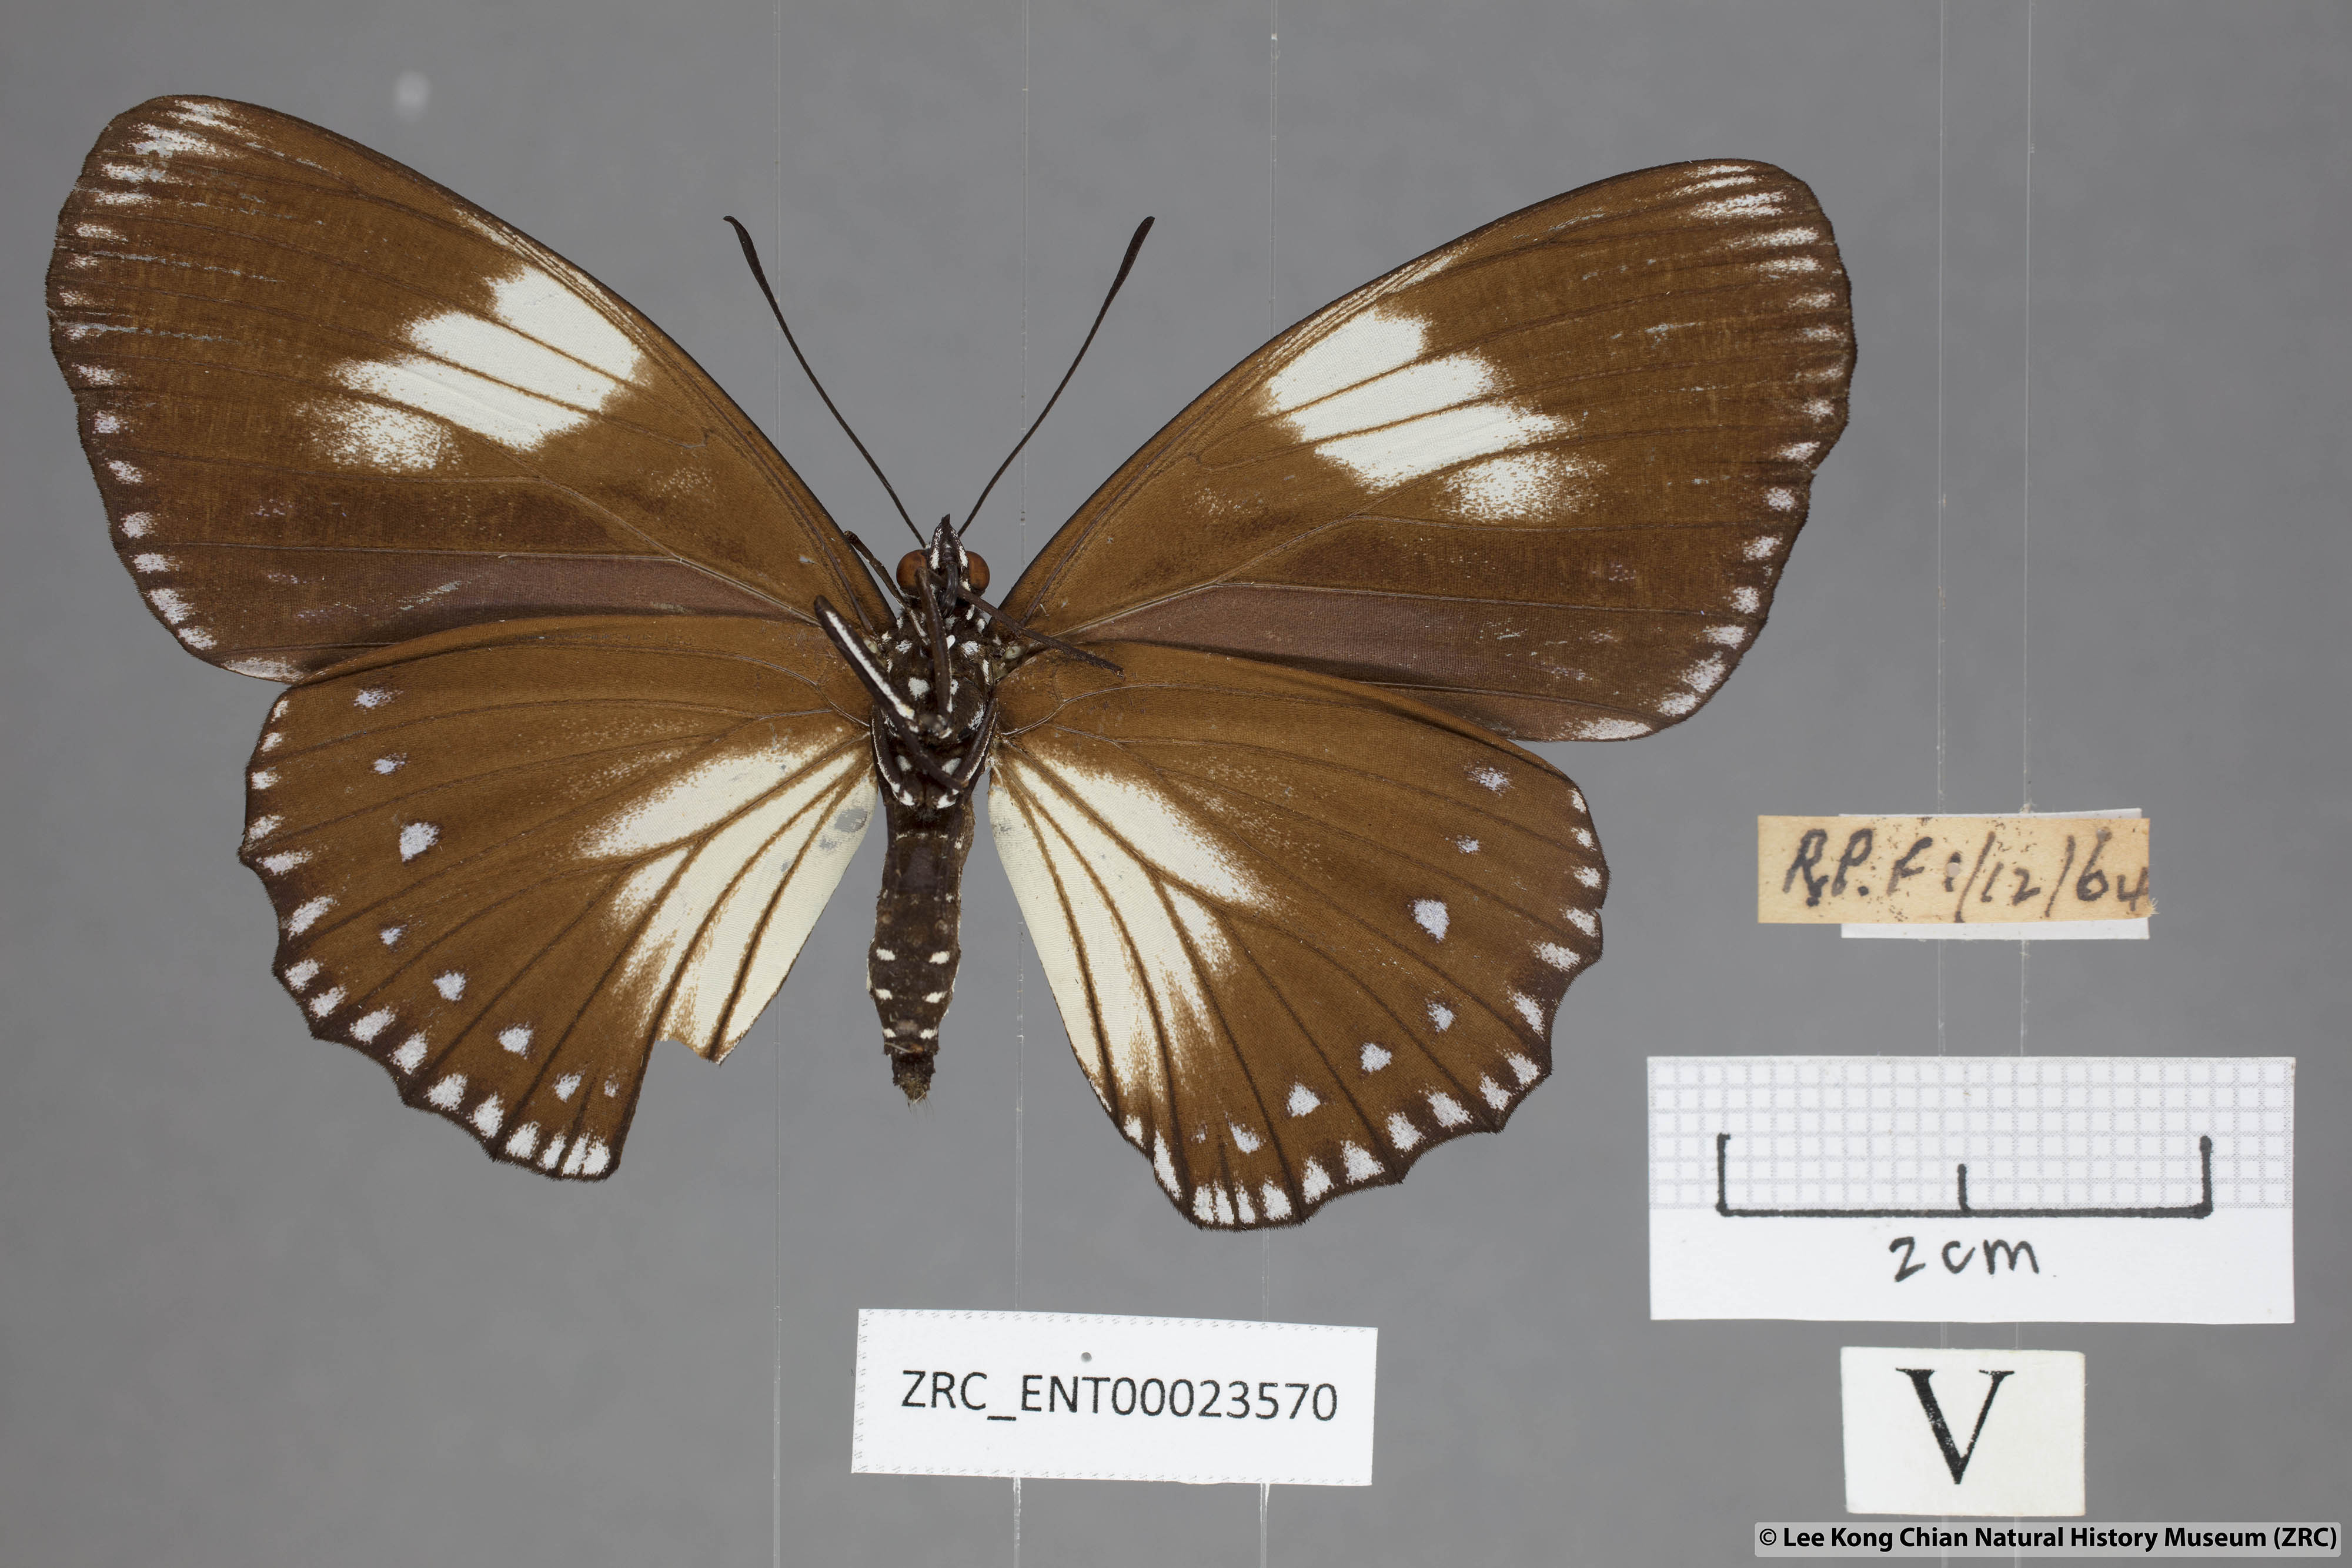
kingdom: Animalia
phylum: Arthropoda
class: Insecta
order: Lepidoptera
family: Nymphalidae
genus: Euripus
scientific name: Euripus nyctelius
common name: Courtesan
